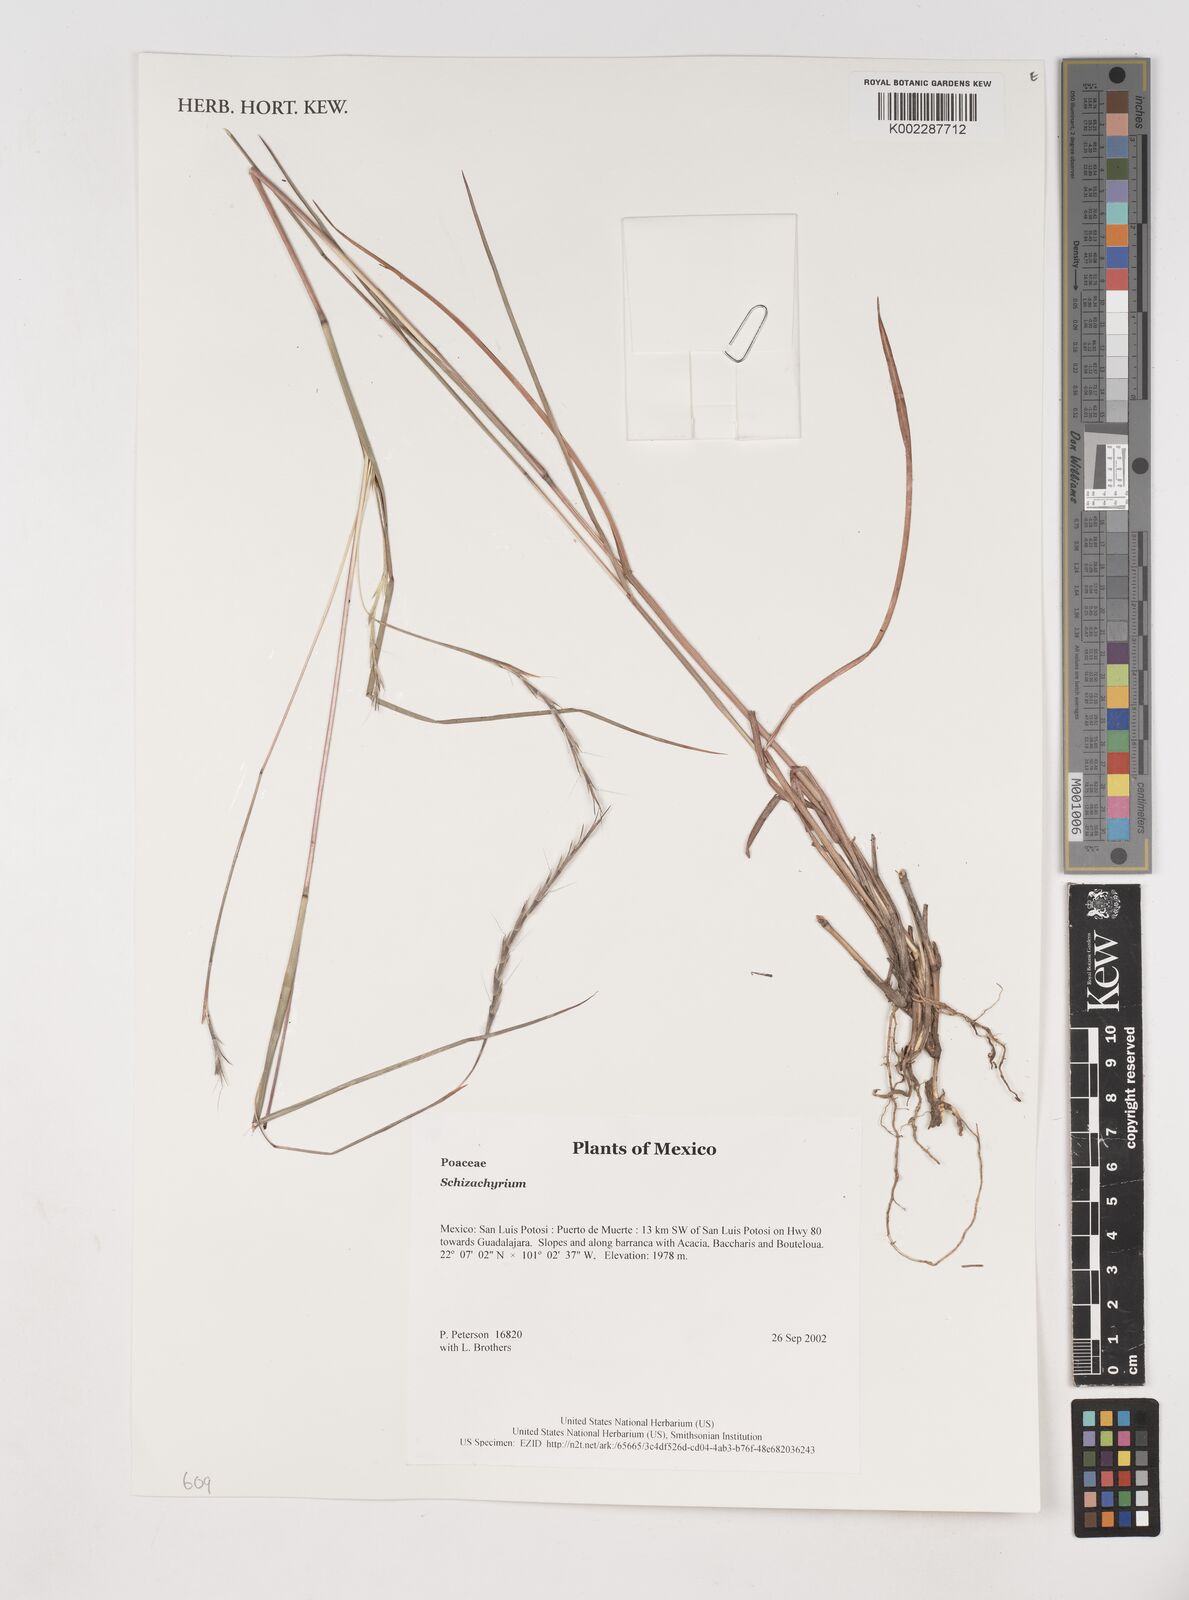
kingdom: Plantae
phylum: Tracheophyta
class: Liliopsida
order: Poales
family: Poaceae
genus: Schizachyrium
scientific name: Schizachyrium
